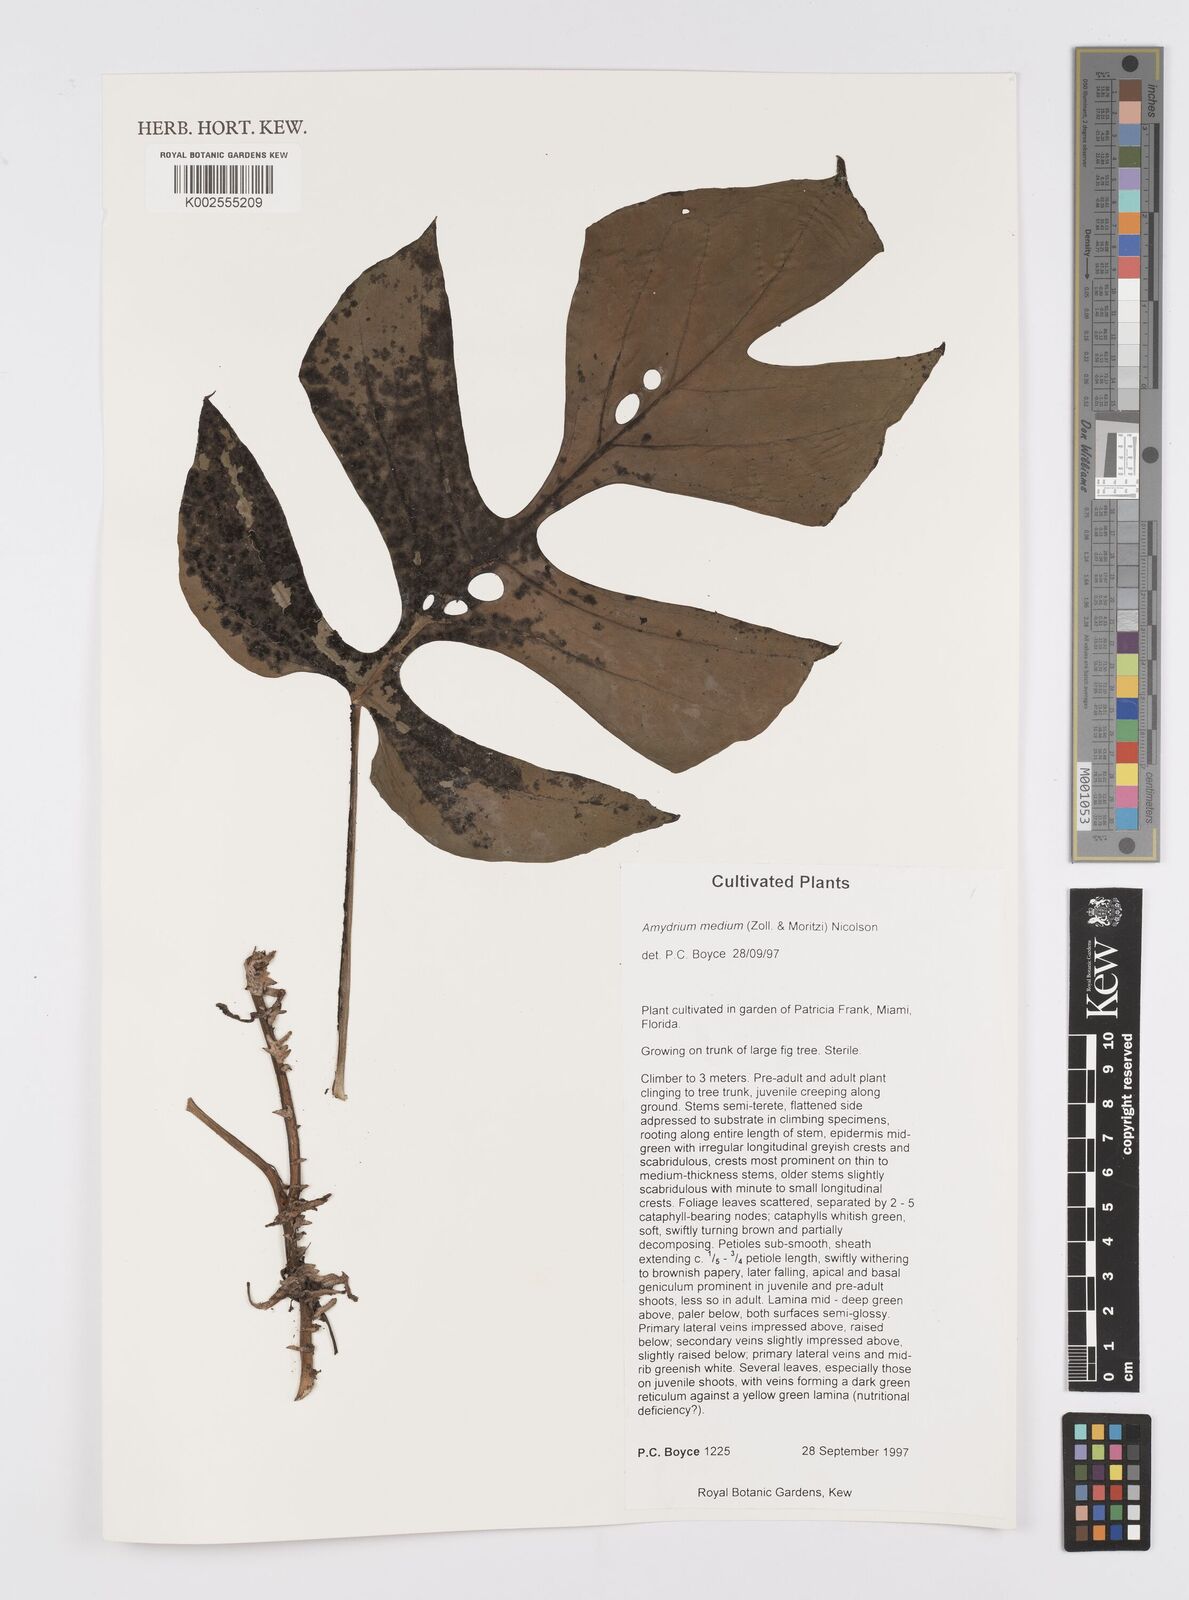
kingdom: Plantae
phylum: Tracheophyta
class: Liliopsida
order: Alismatales
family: Araceae
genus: Amydrium
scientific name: Amydrium medium
